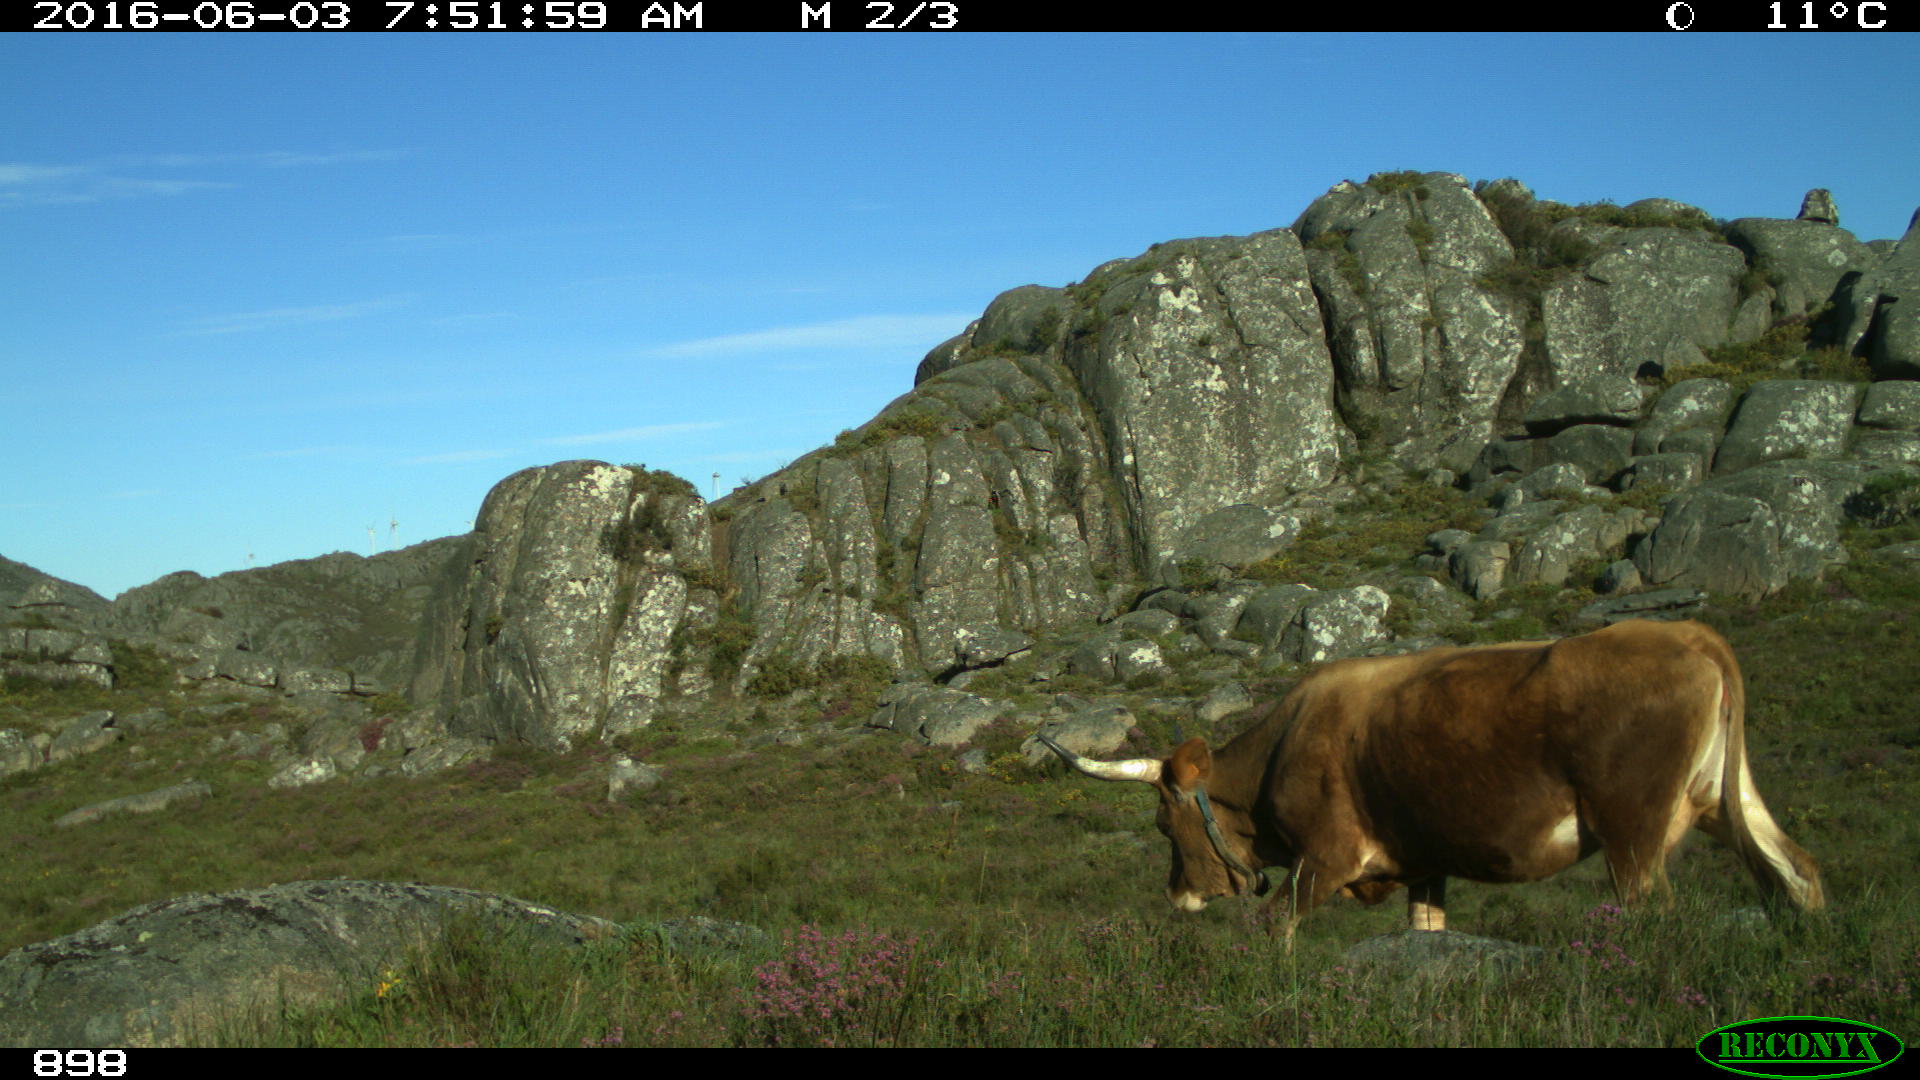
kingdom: Animalia
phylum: Chordata
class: Mammalia
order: Artiodactyla
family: Bovidae
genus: Bos
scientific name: Bos taurus
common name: Domesticated cattle
